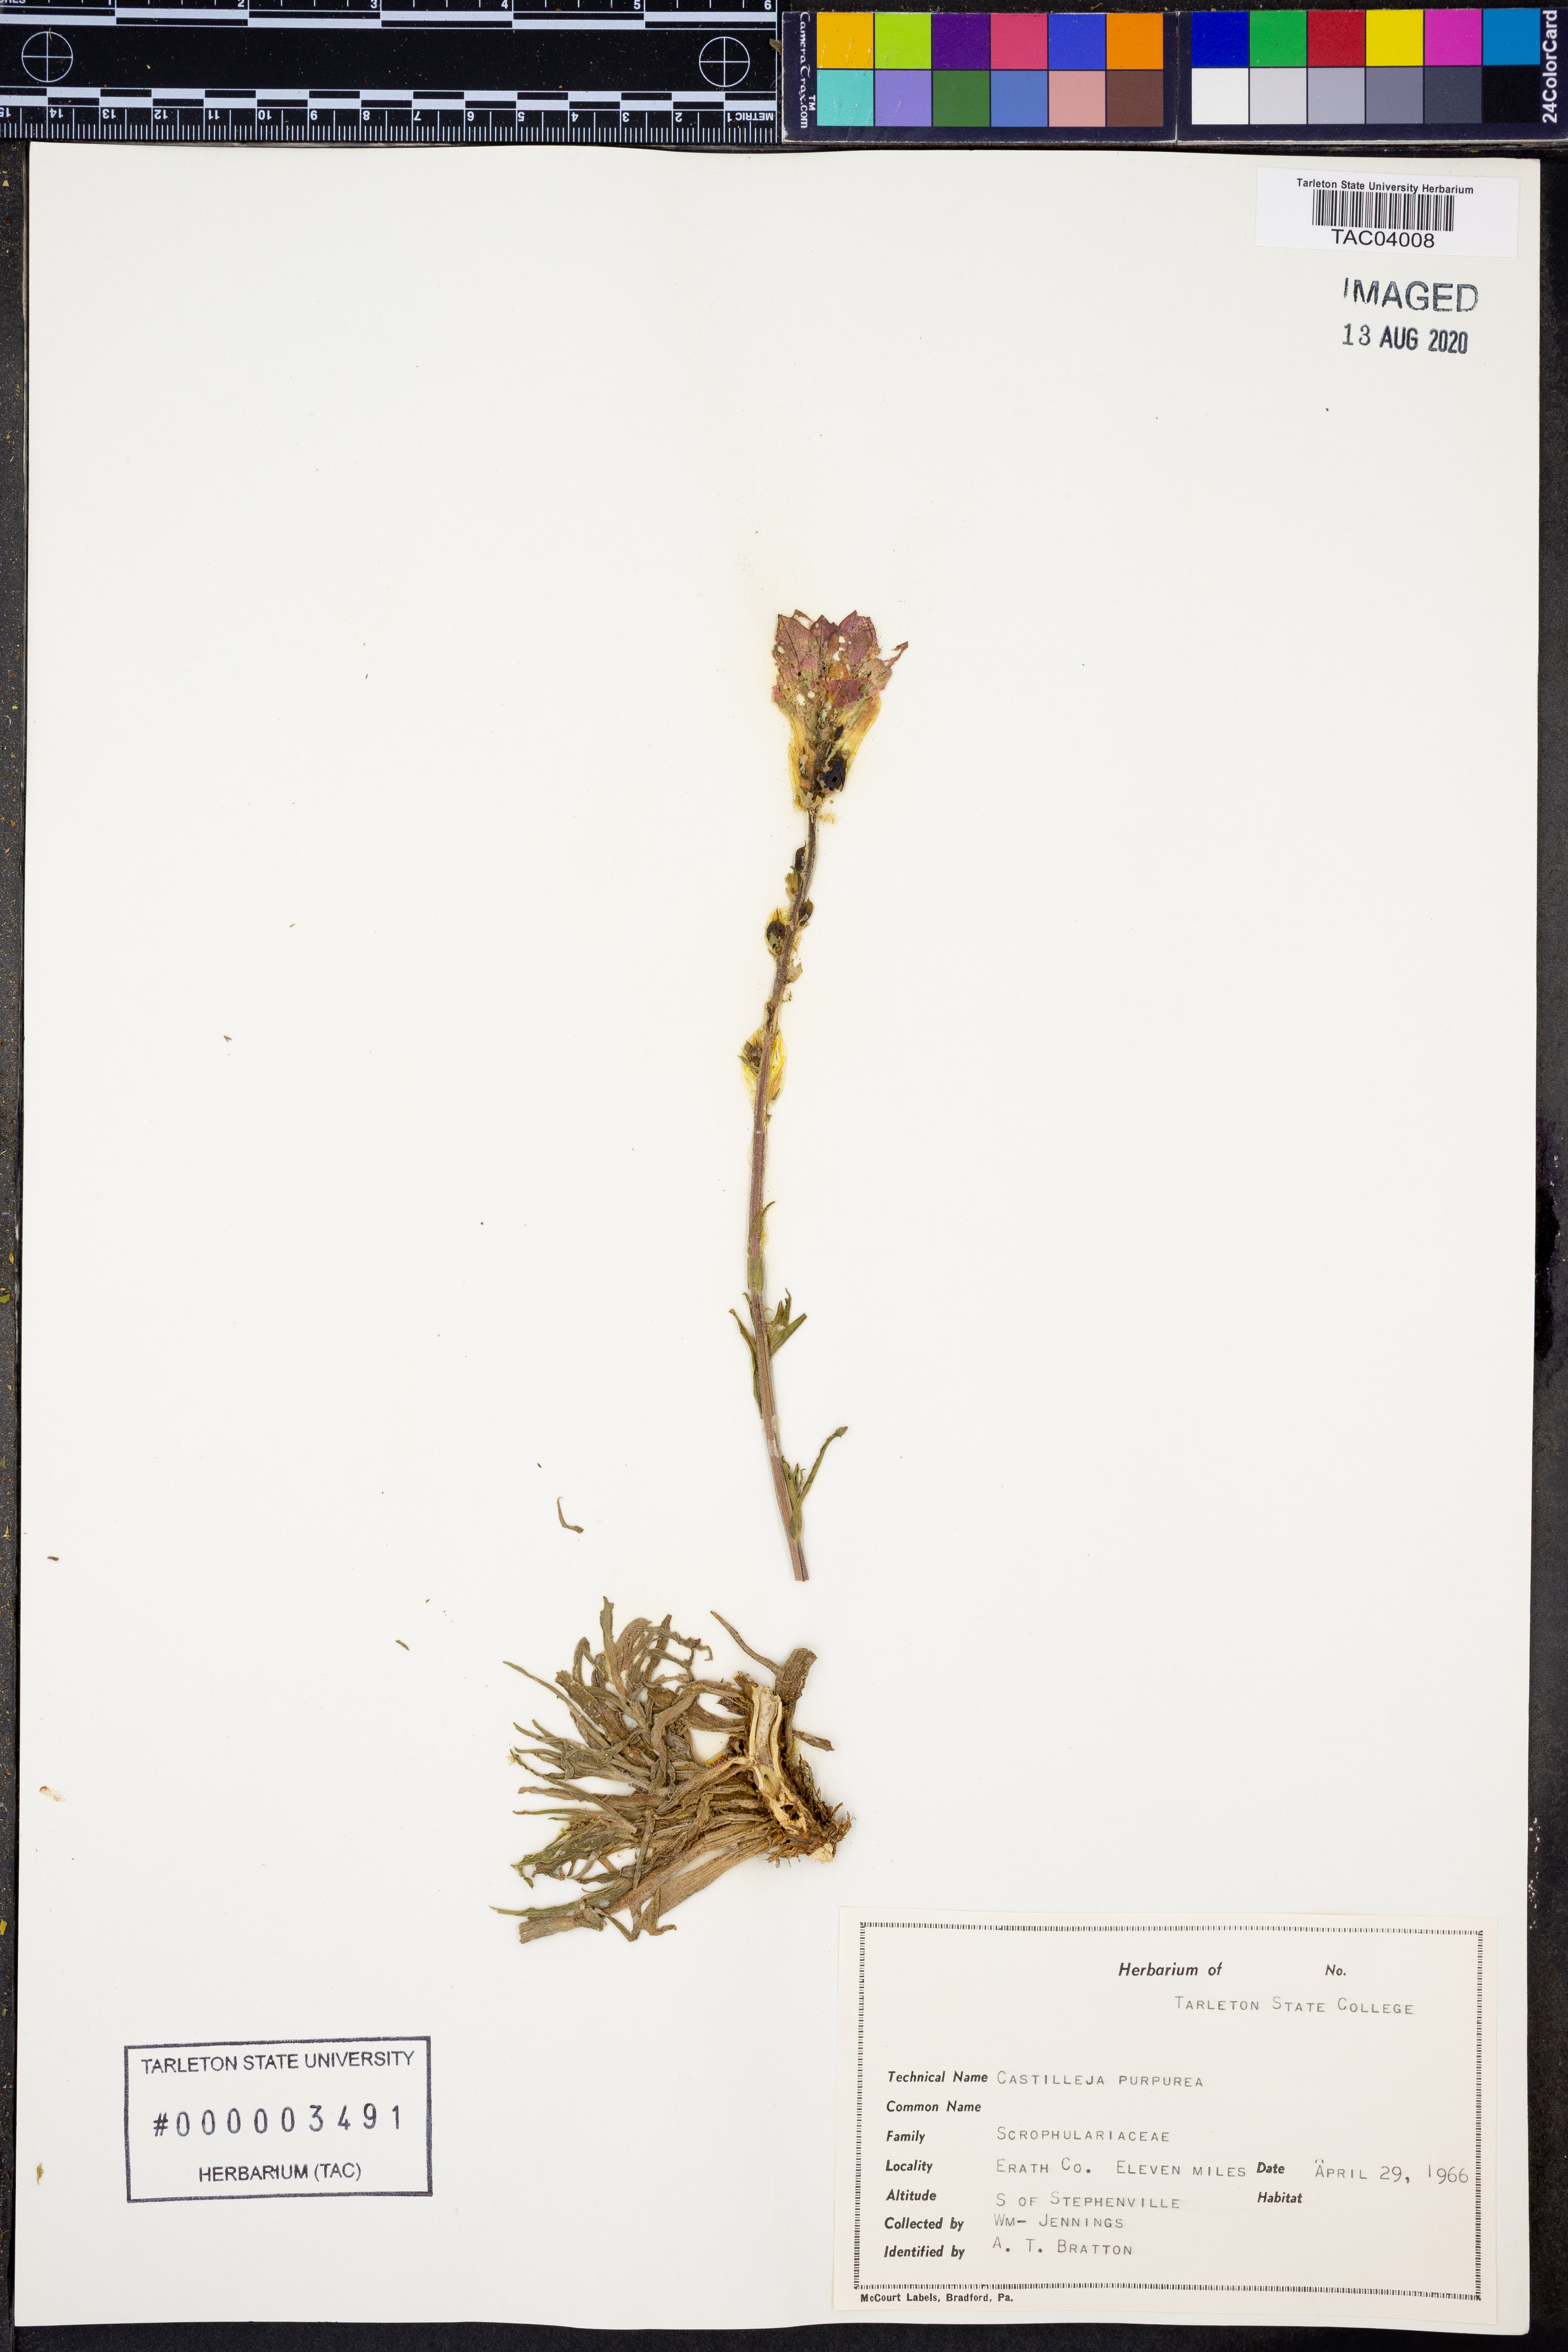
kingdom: Plantae
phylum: Tracheophyta
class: Magnoliopsida
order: Lamiales
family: Orobanchaceae
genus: Castilleja
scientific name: Castilleja purpurea
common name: Plains paintbrush
